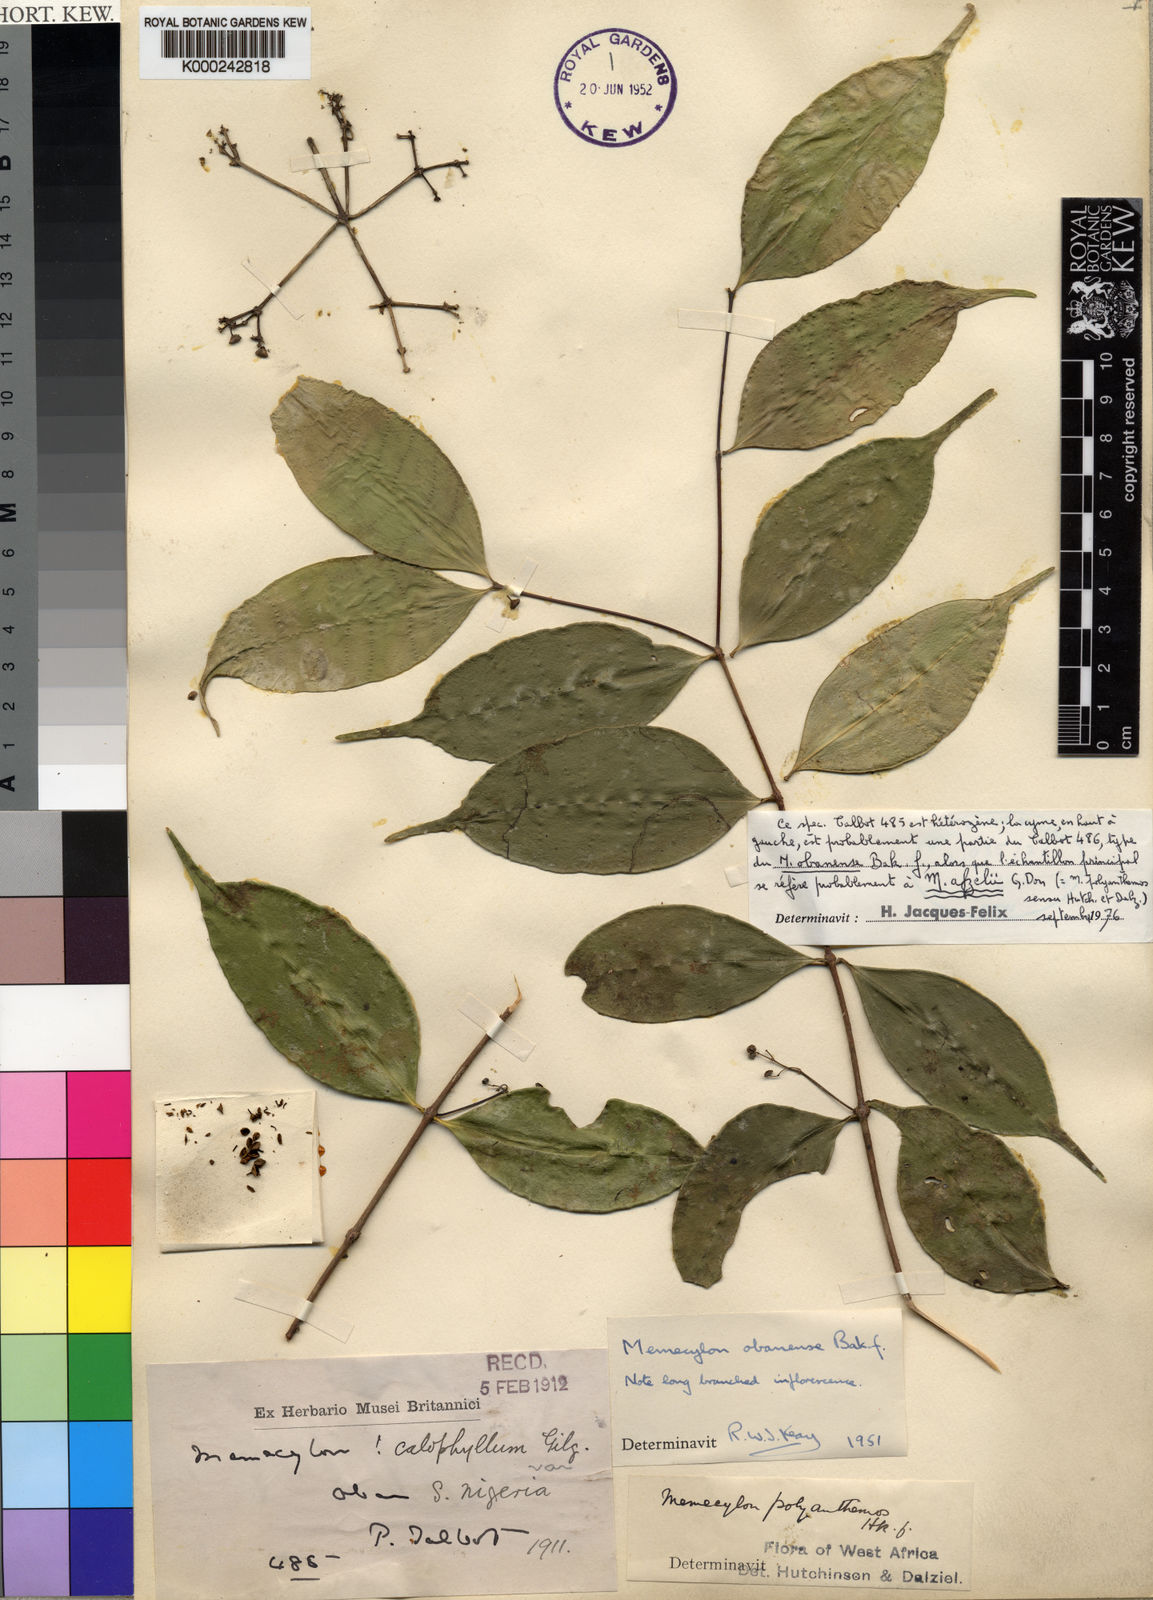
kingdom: Plantae
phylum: Tracheophyta
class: Magnoliopsida
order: Myrtales
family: Melastomataceae
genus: Memecylon
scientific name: Memecylon afzelii
